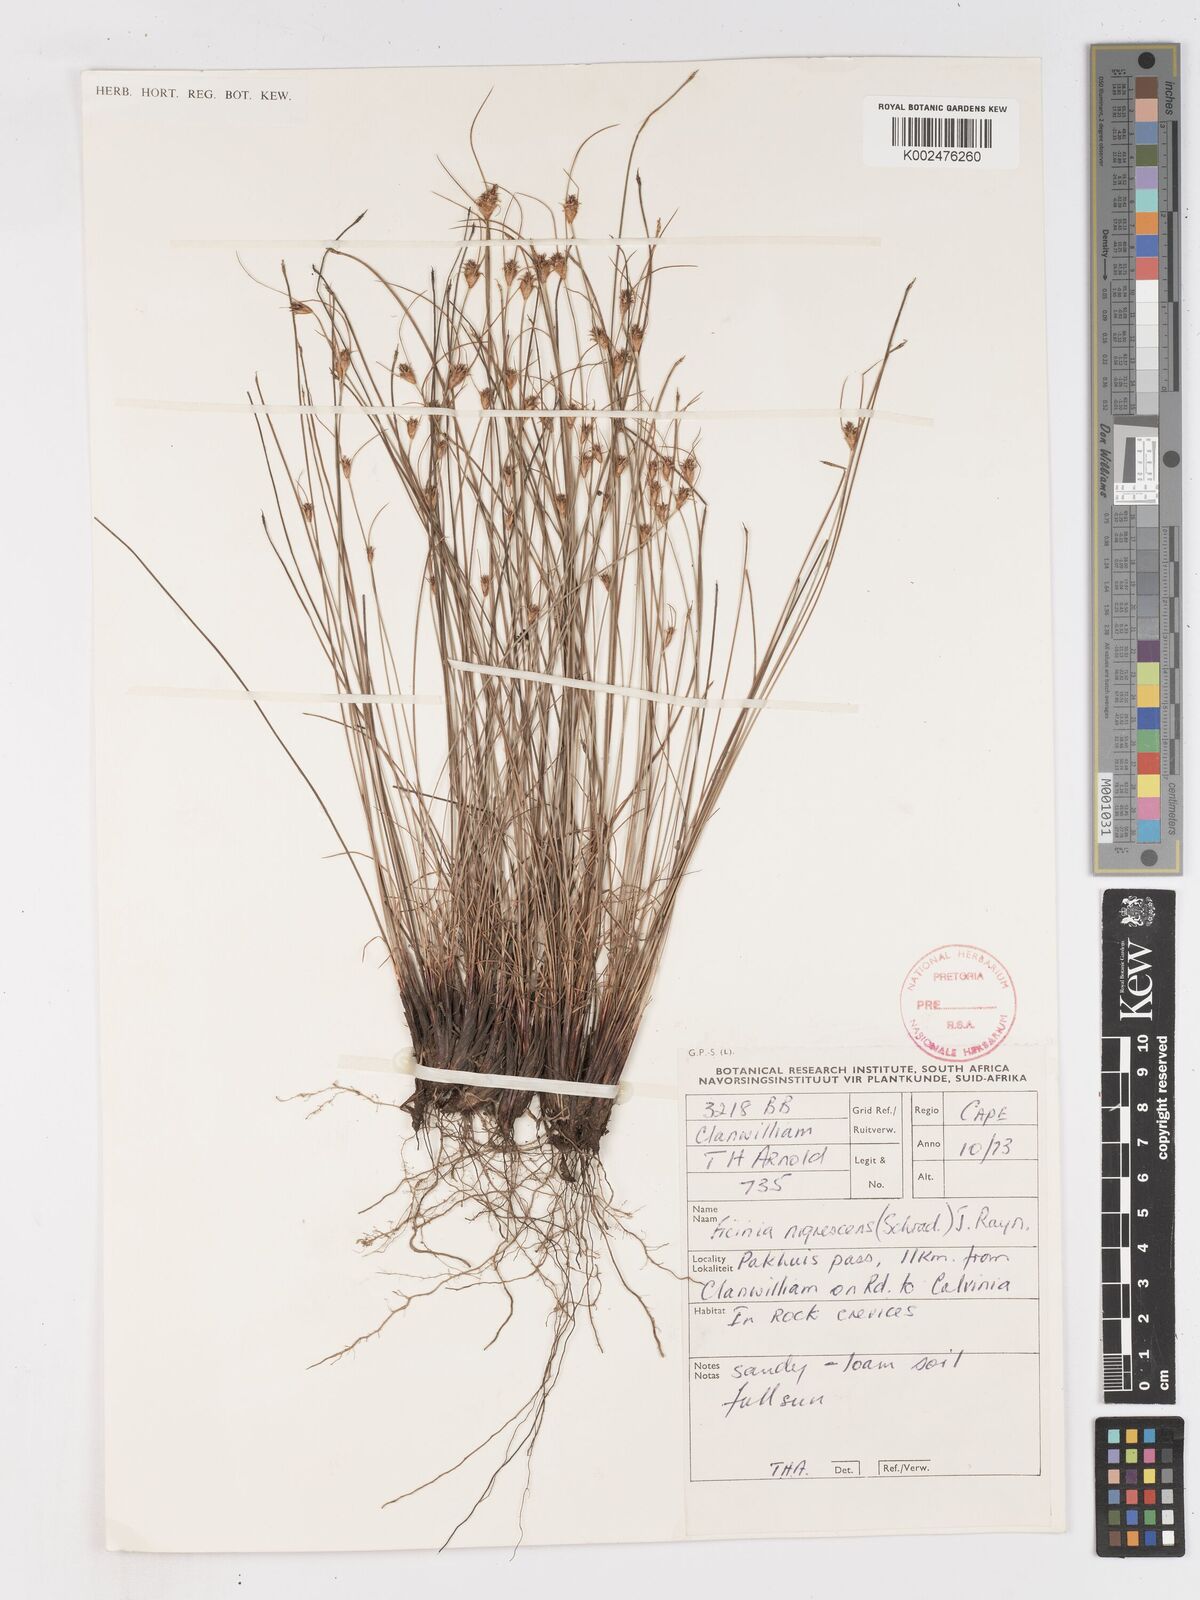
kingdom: Plantae
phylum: Tracheophyta
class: Liliopsida
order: Poales
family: Cyperaceae
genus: Ficinia
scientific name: Ficinia nigrescens
